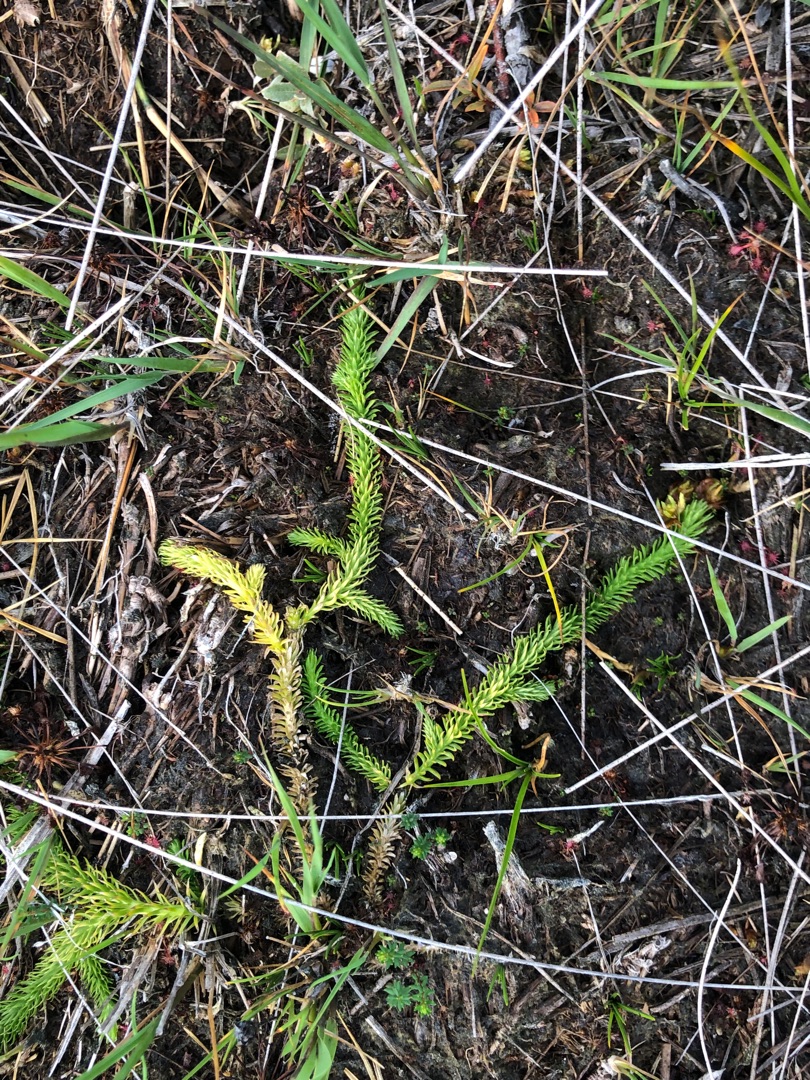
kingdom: Plantae
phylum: Tracheophyta
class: Lycopodiopsida
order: Lycopodiales
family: Lycopodiaceae
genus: Lycopodiella
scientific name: Lycopodiella inundata
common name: Liden ulvefod
